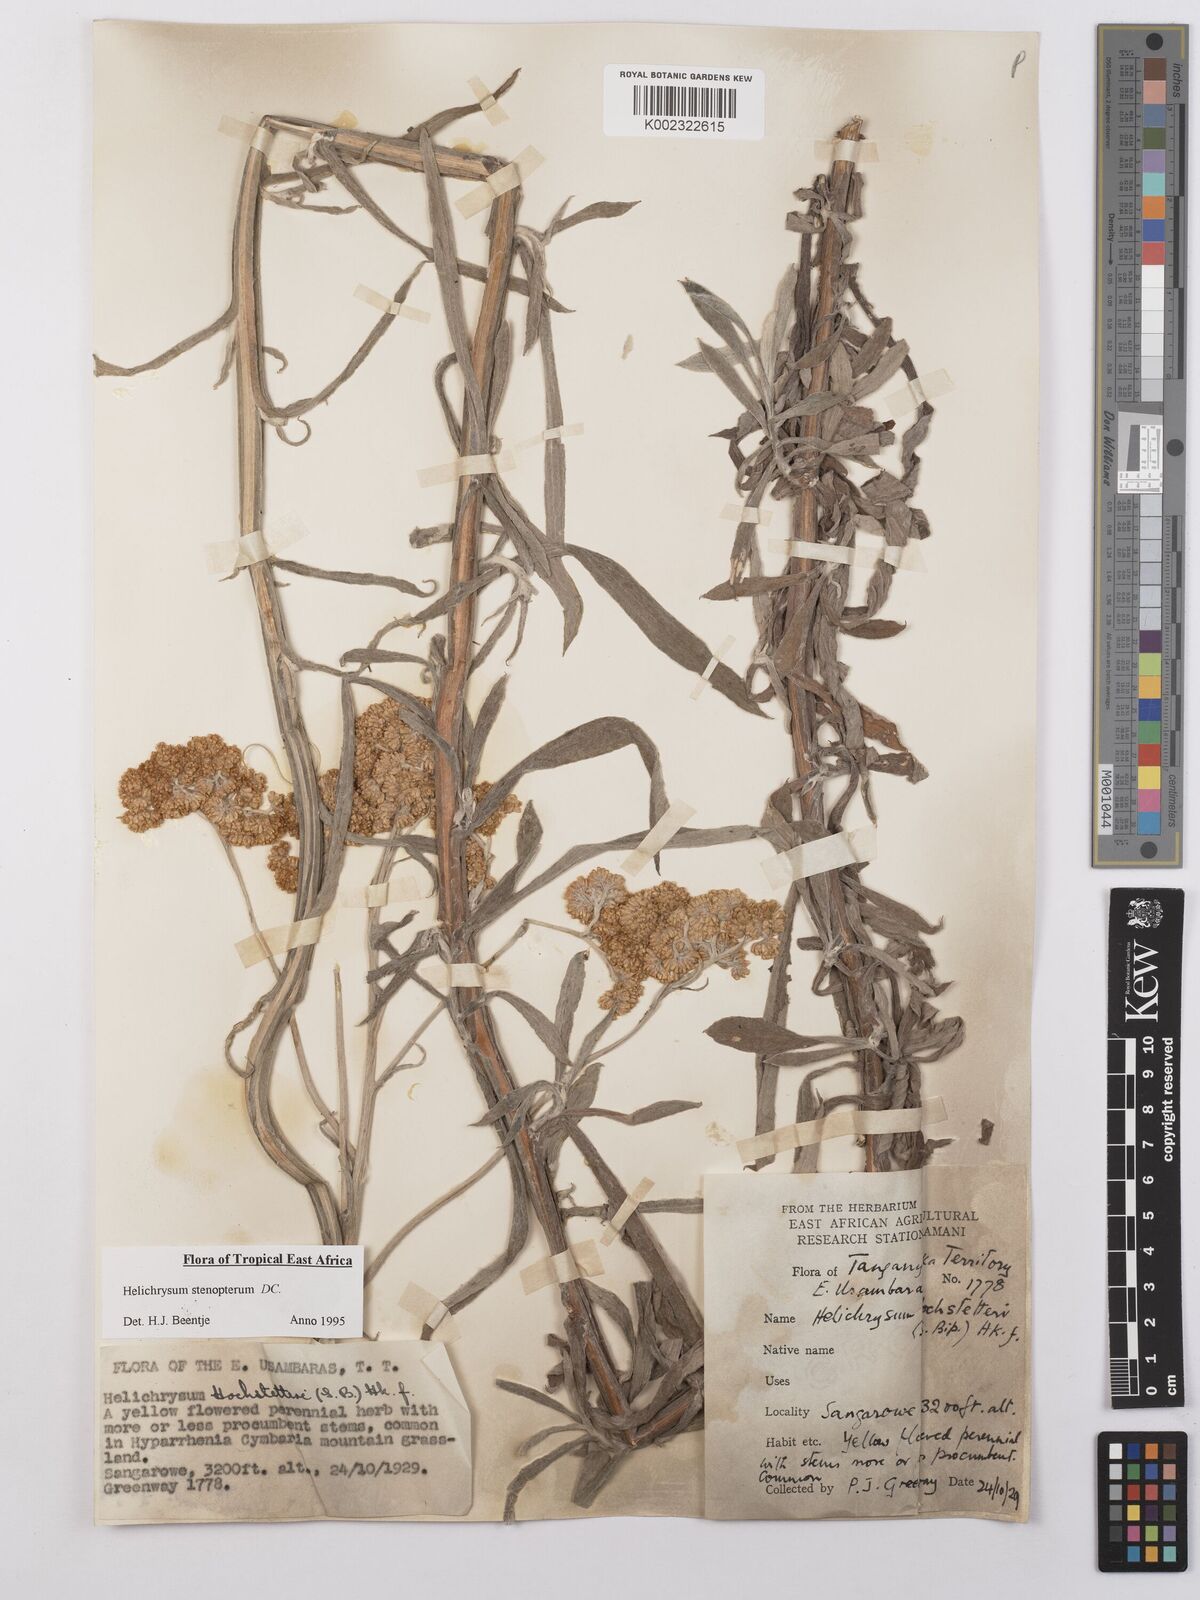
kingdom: Plantae
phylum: Tracheophyta
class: Magnoliopsida
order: Asterales
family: Asteraceae
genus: Helichrysum
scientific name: Helichrysum stenopterum
